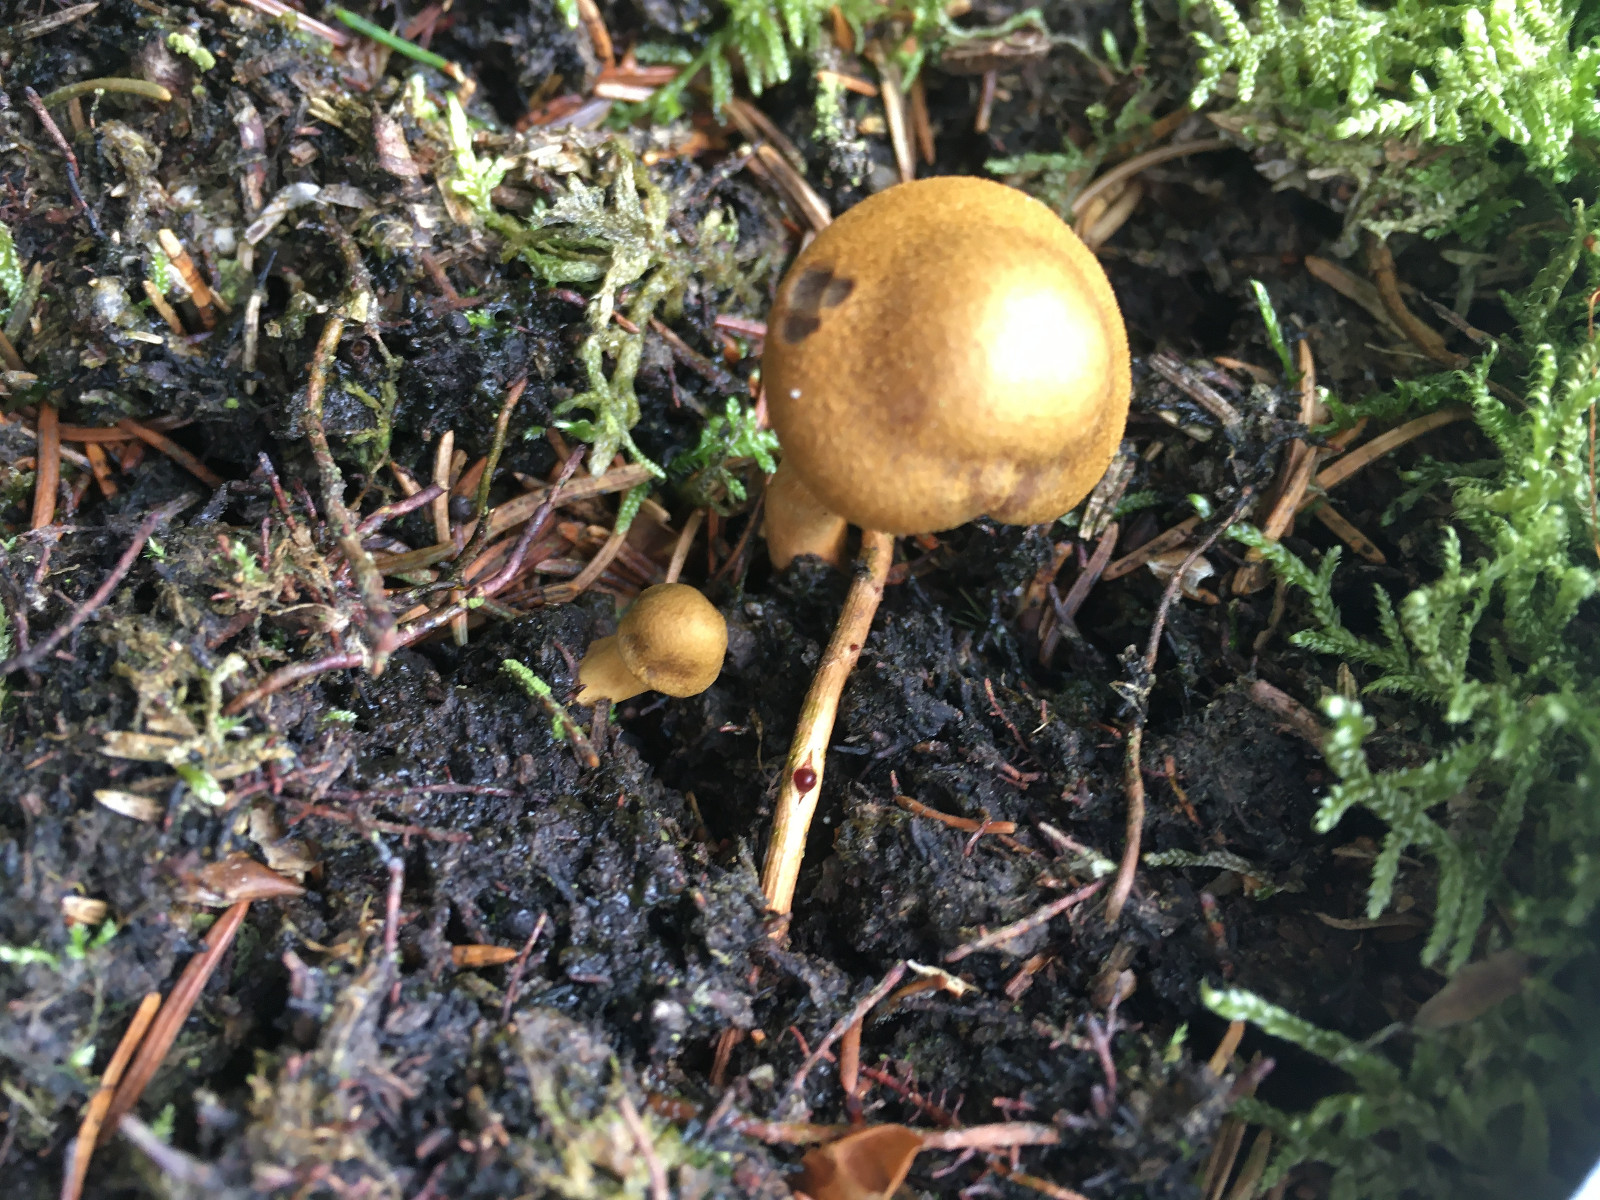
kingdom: Fungi
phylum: Basidiomycota
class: Agaricomycetes
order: Agaricales
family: Cortinariaceae
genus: Cortinarius
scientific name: Cortinarius
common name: cinnoberbladet slørhat
